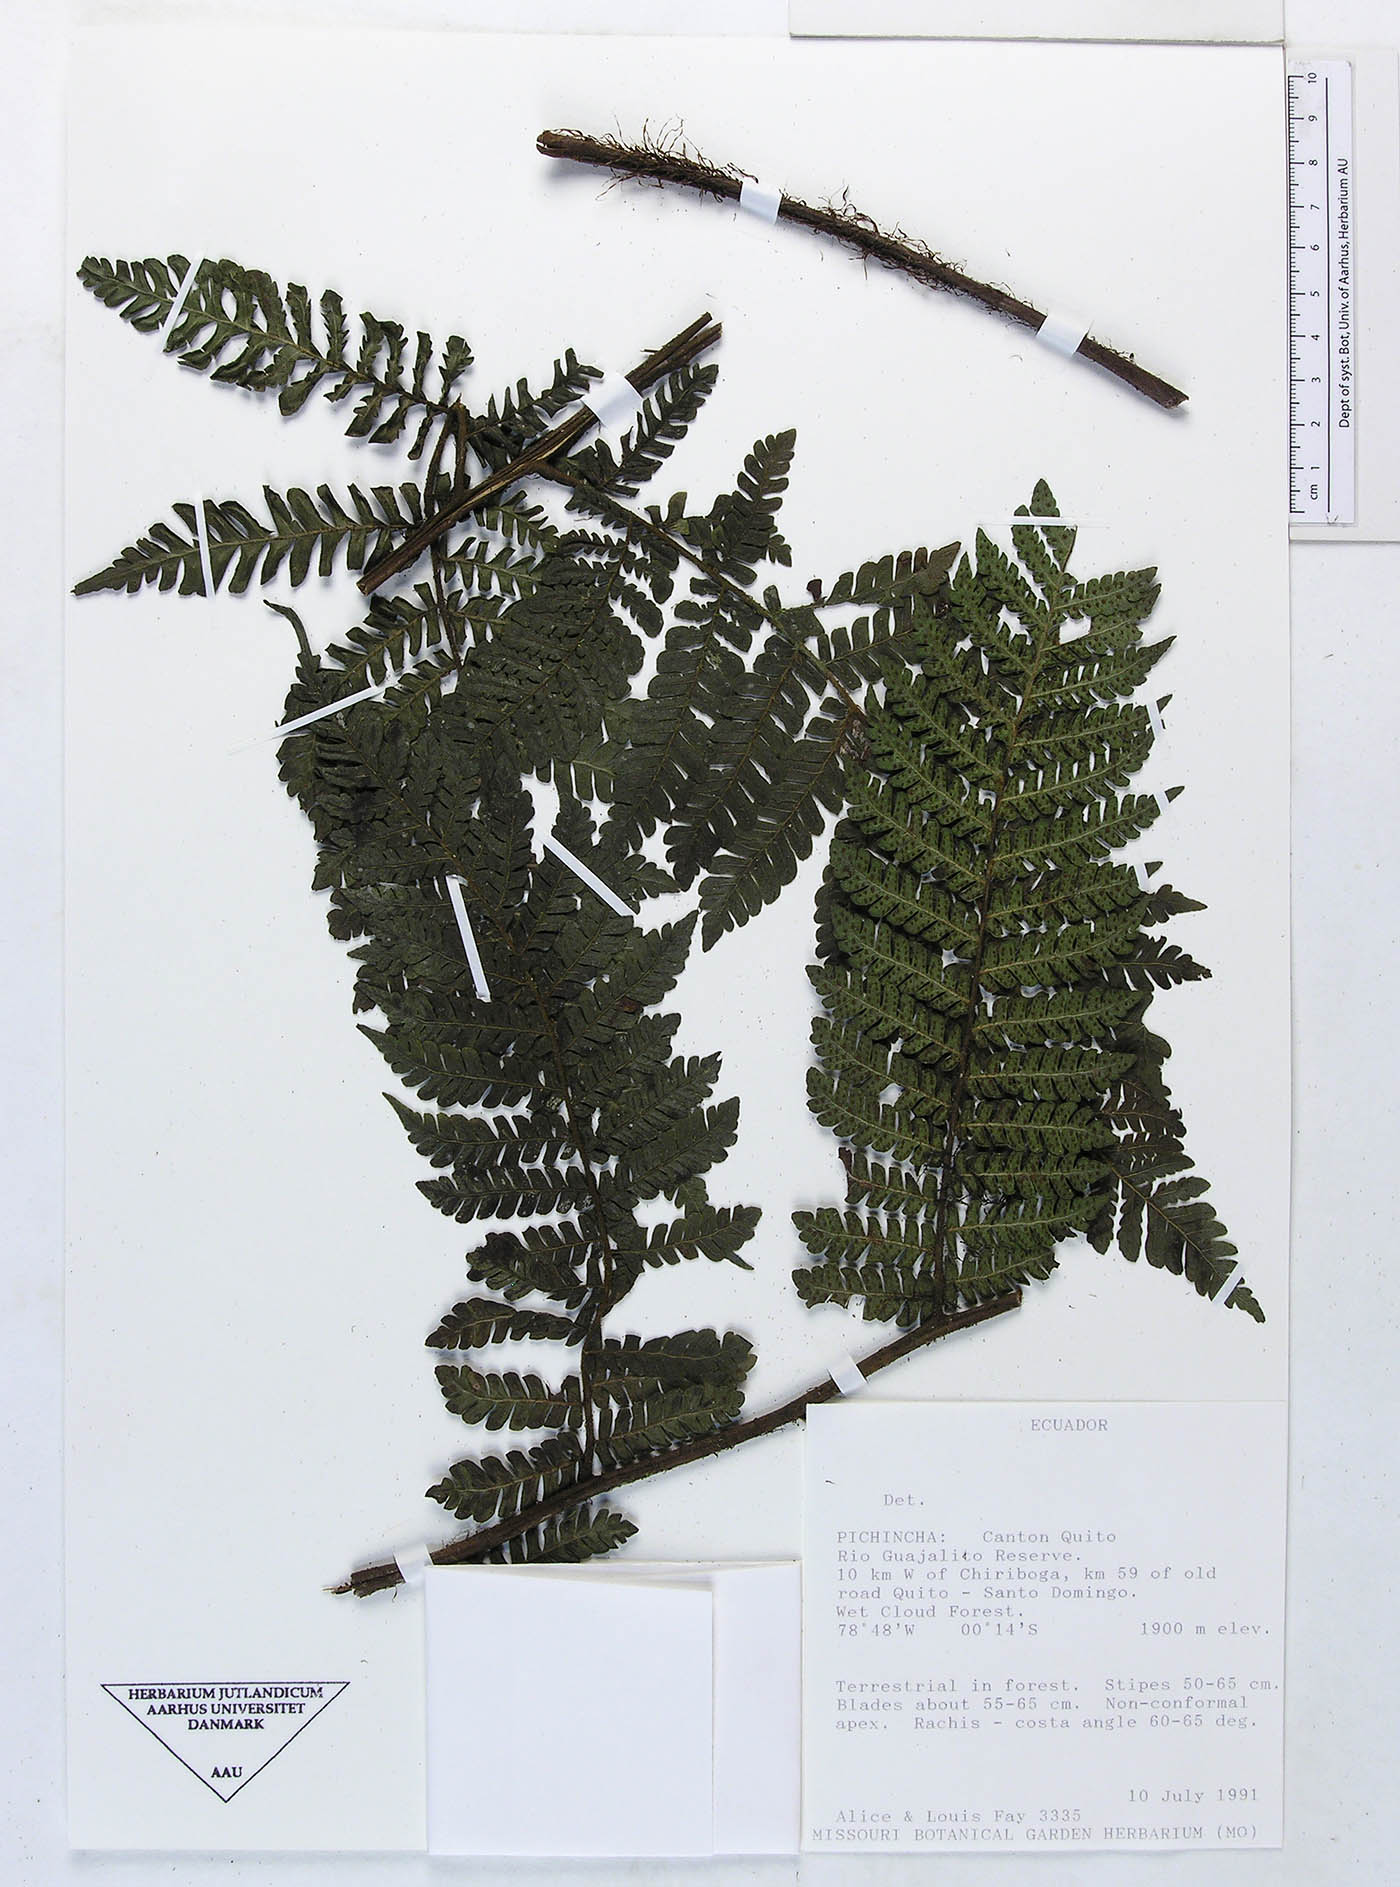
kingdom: Plantae
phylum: Tracheophyta
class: Polypodiopsida
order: Polypodiales
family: Dryopteridaceae
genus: Megalastrum
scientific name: Megalastrum vastum
